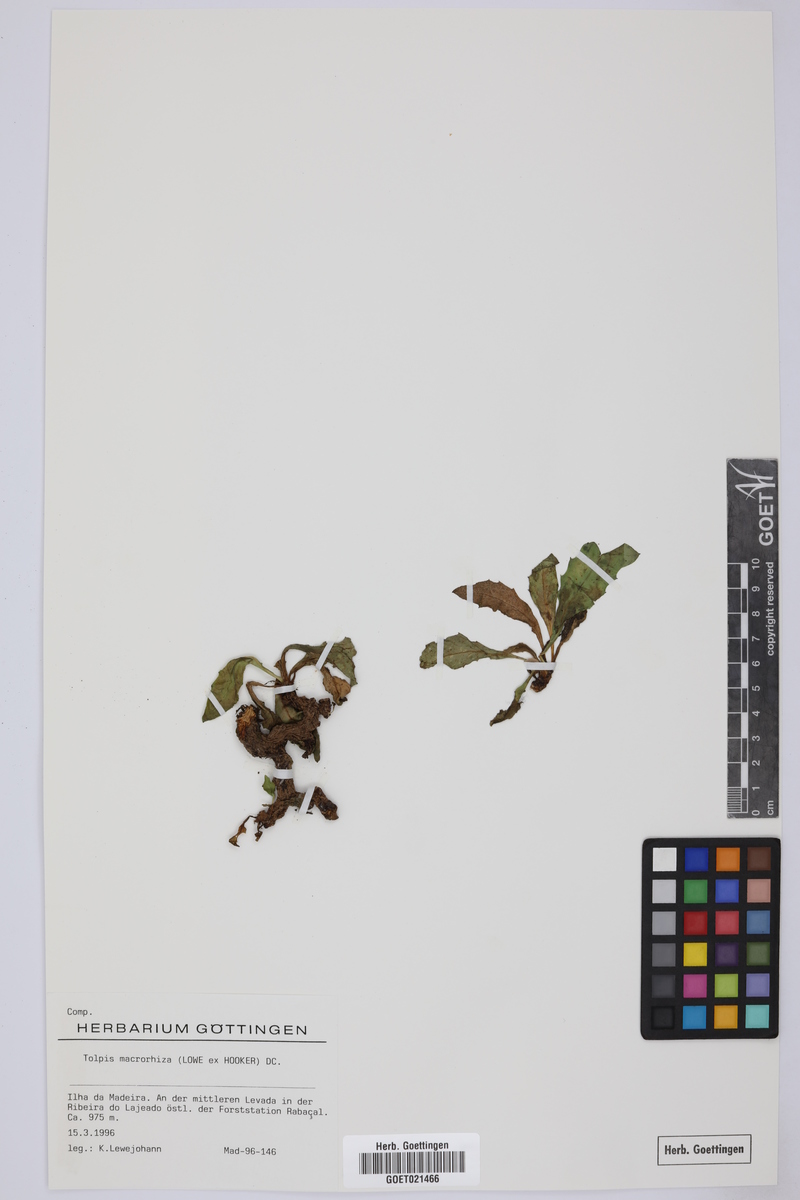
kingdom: Plantae
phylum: Tracheophyta
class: Magnoliopsida
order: Asterales
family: Asteraceae
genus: Tolpis
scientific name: Tolpis macrorhiza
